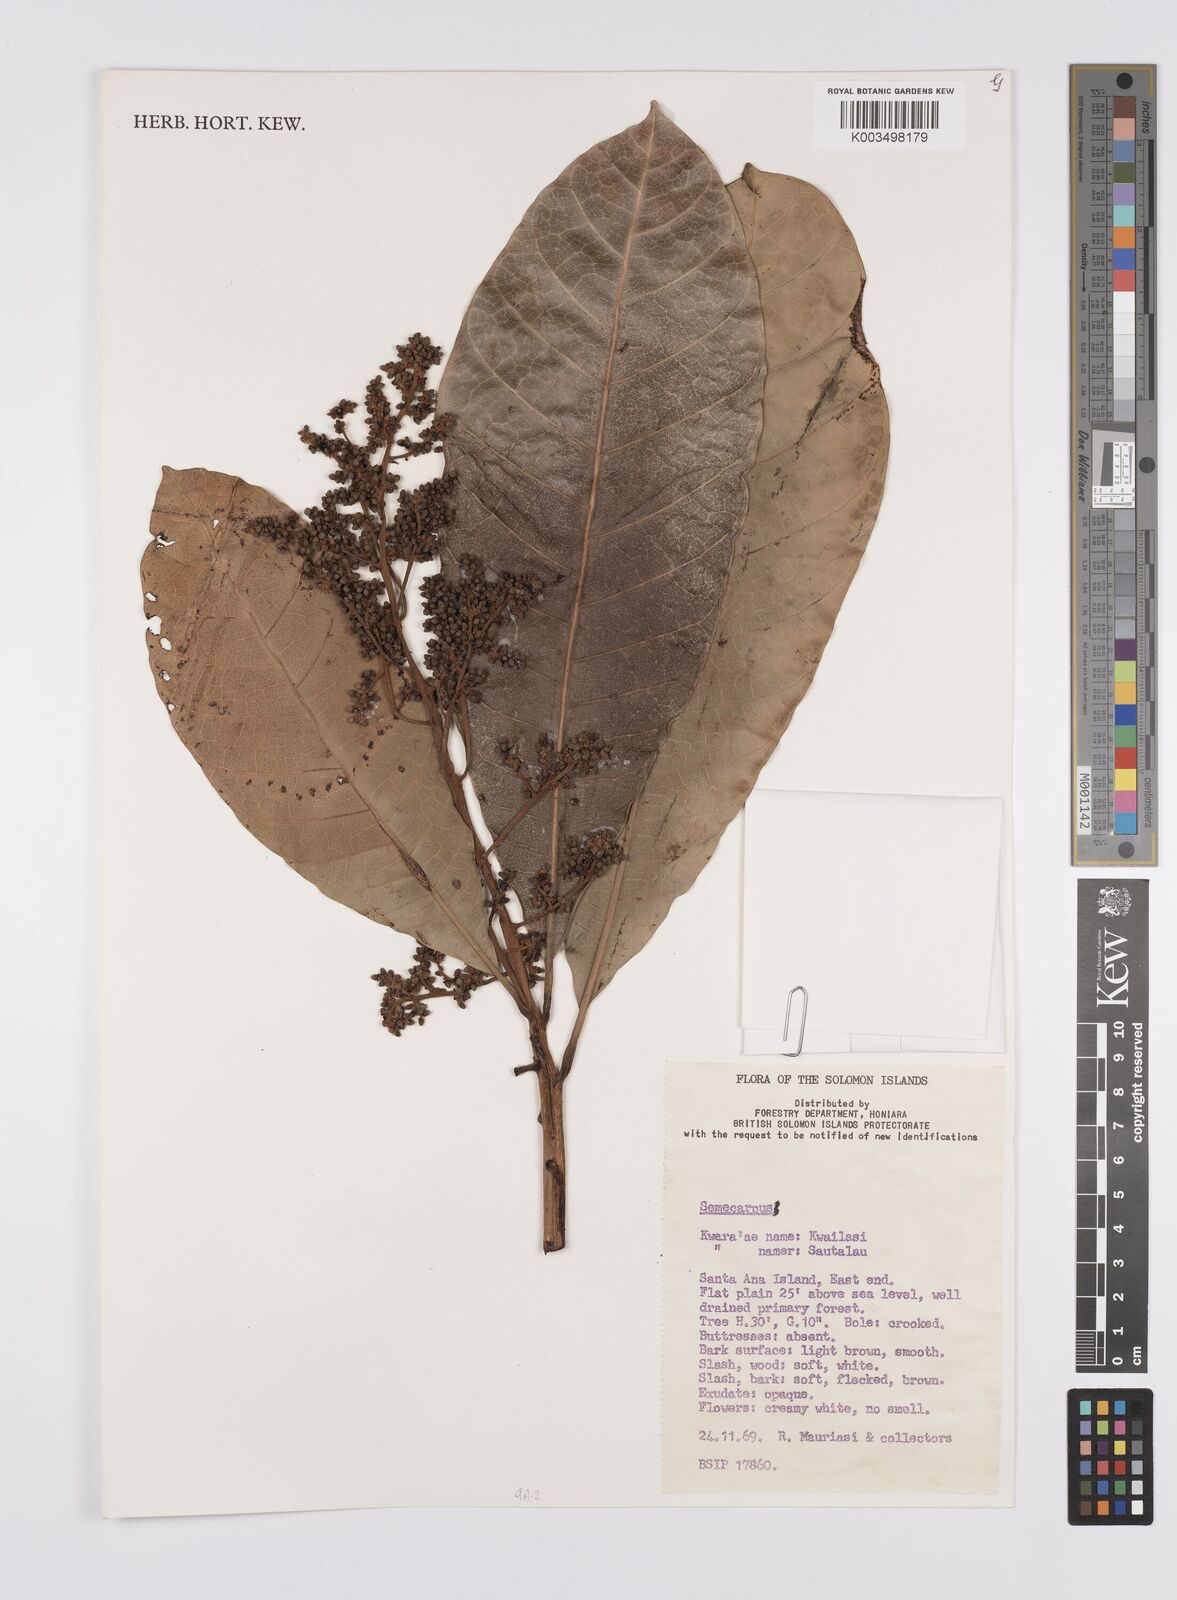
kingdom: Plantae
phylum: Tracheophyta
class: Magnoliopsida
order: Sapindales
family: Anacardiaceae
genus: Semecarpus
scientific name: Semecarpus
